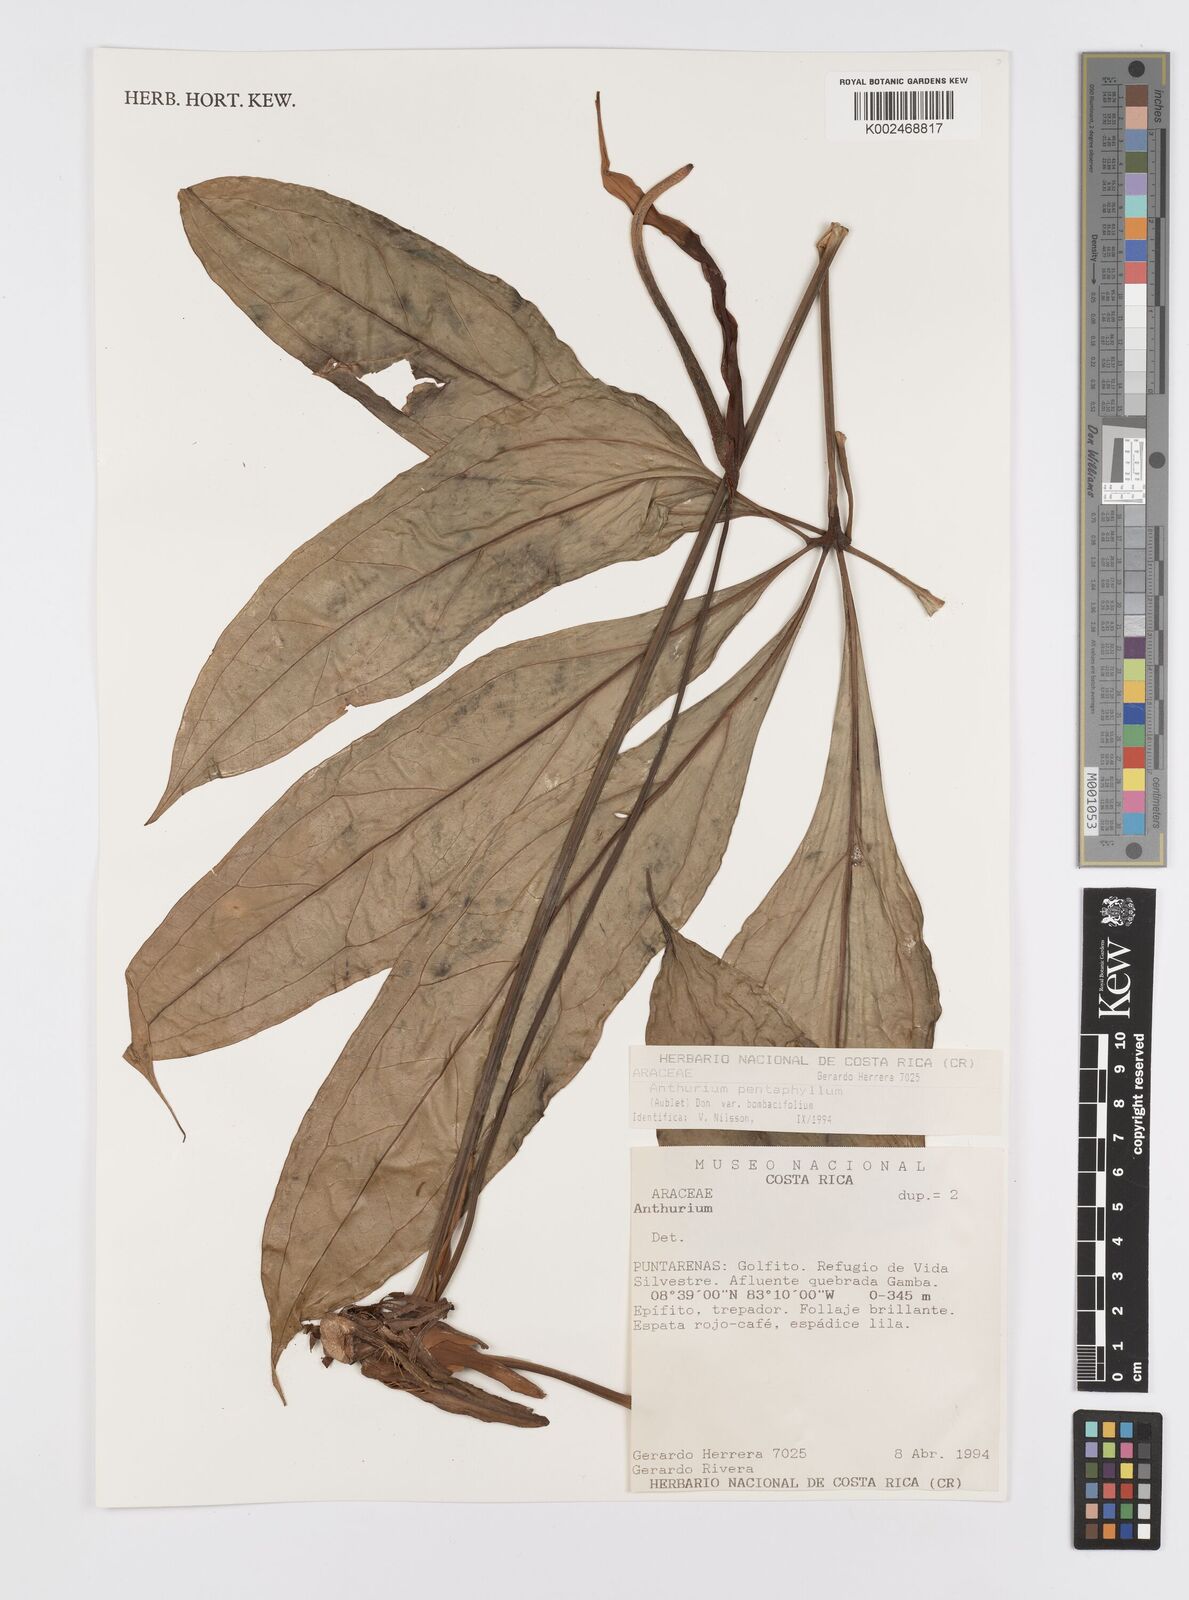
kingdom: Plantae
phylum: Tracheophyta
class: Liliopsida
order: Alismatales
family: Araceae
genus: Anthurium
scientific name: Anthurium pentaphyllum
